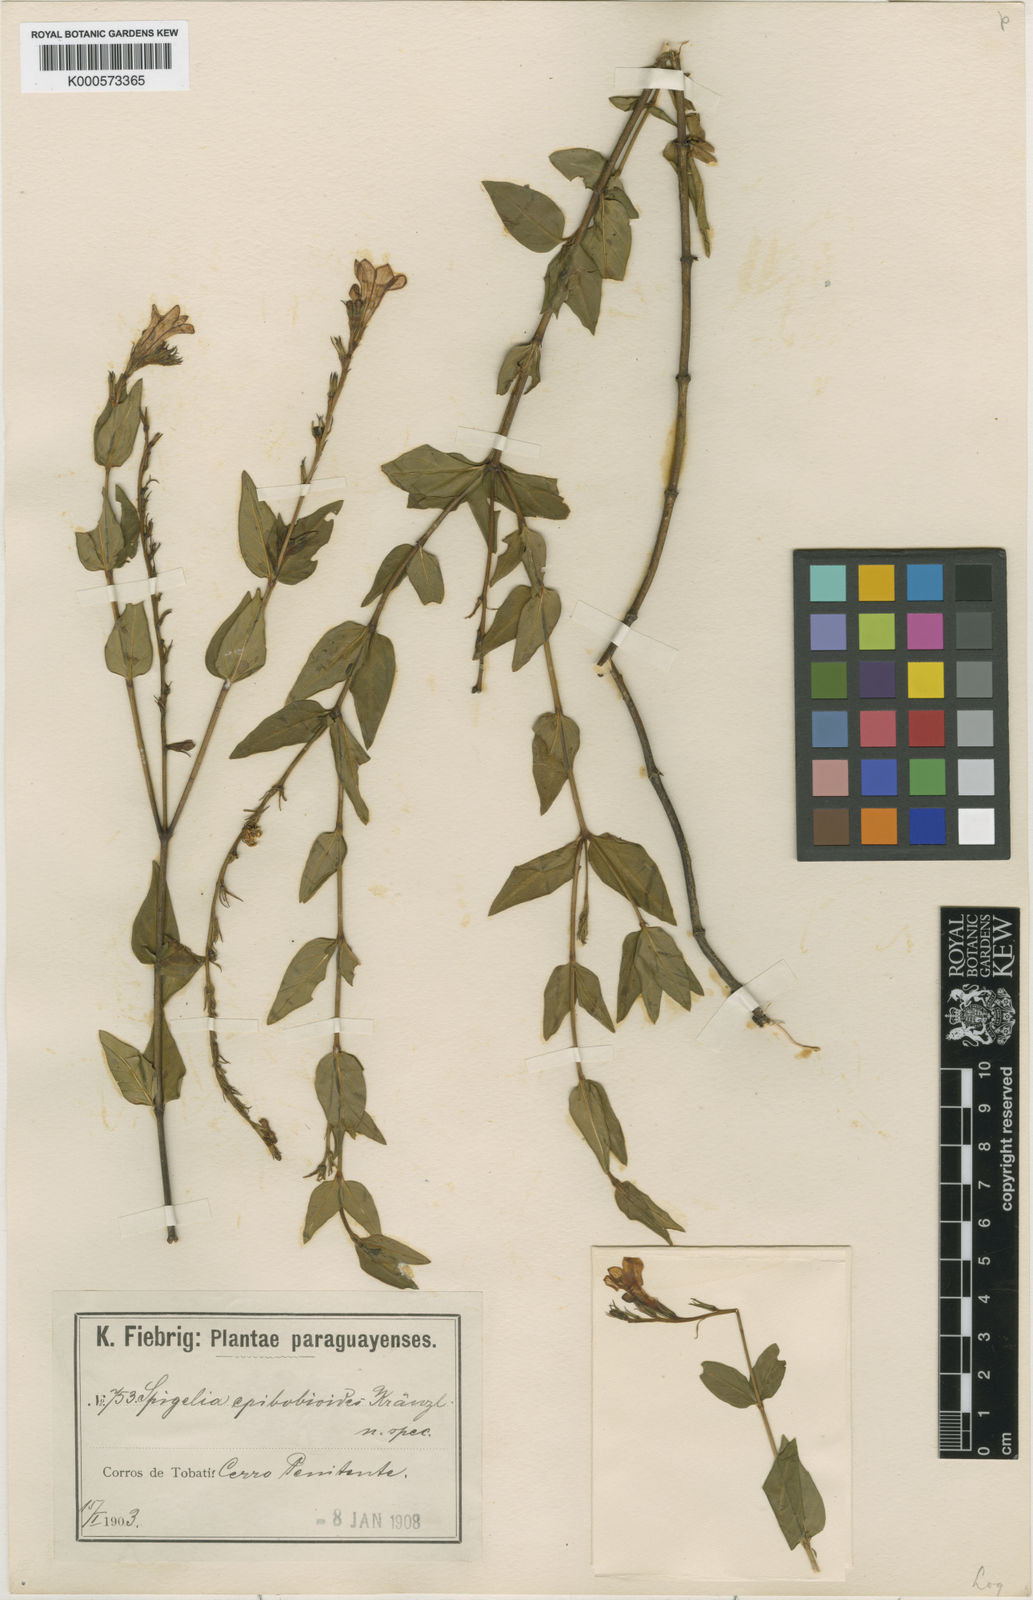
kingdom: Plantae
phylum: Tracheophyta
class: Magnoliopsida
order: Gentianales
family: Loganiaceae
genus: Spigelia
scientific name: Spigelia paraguarensis
